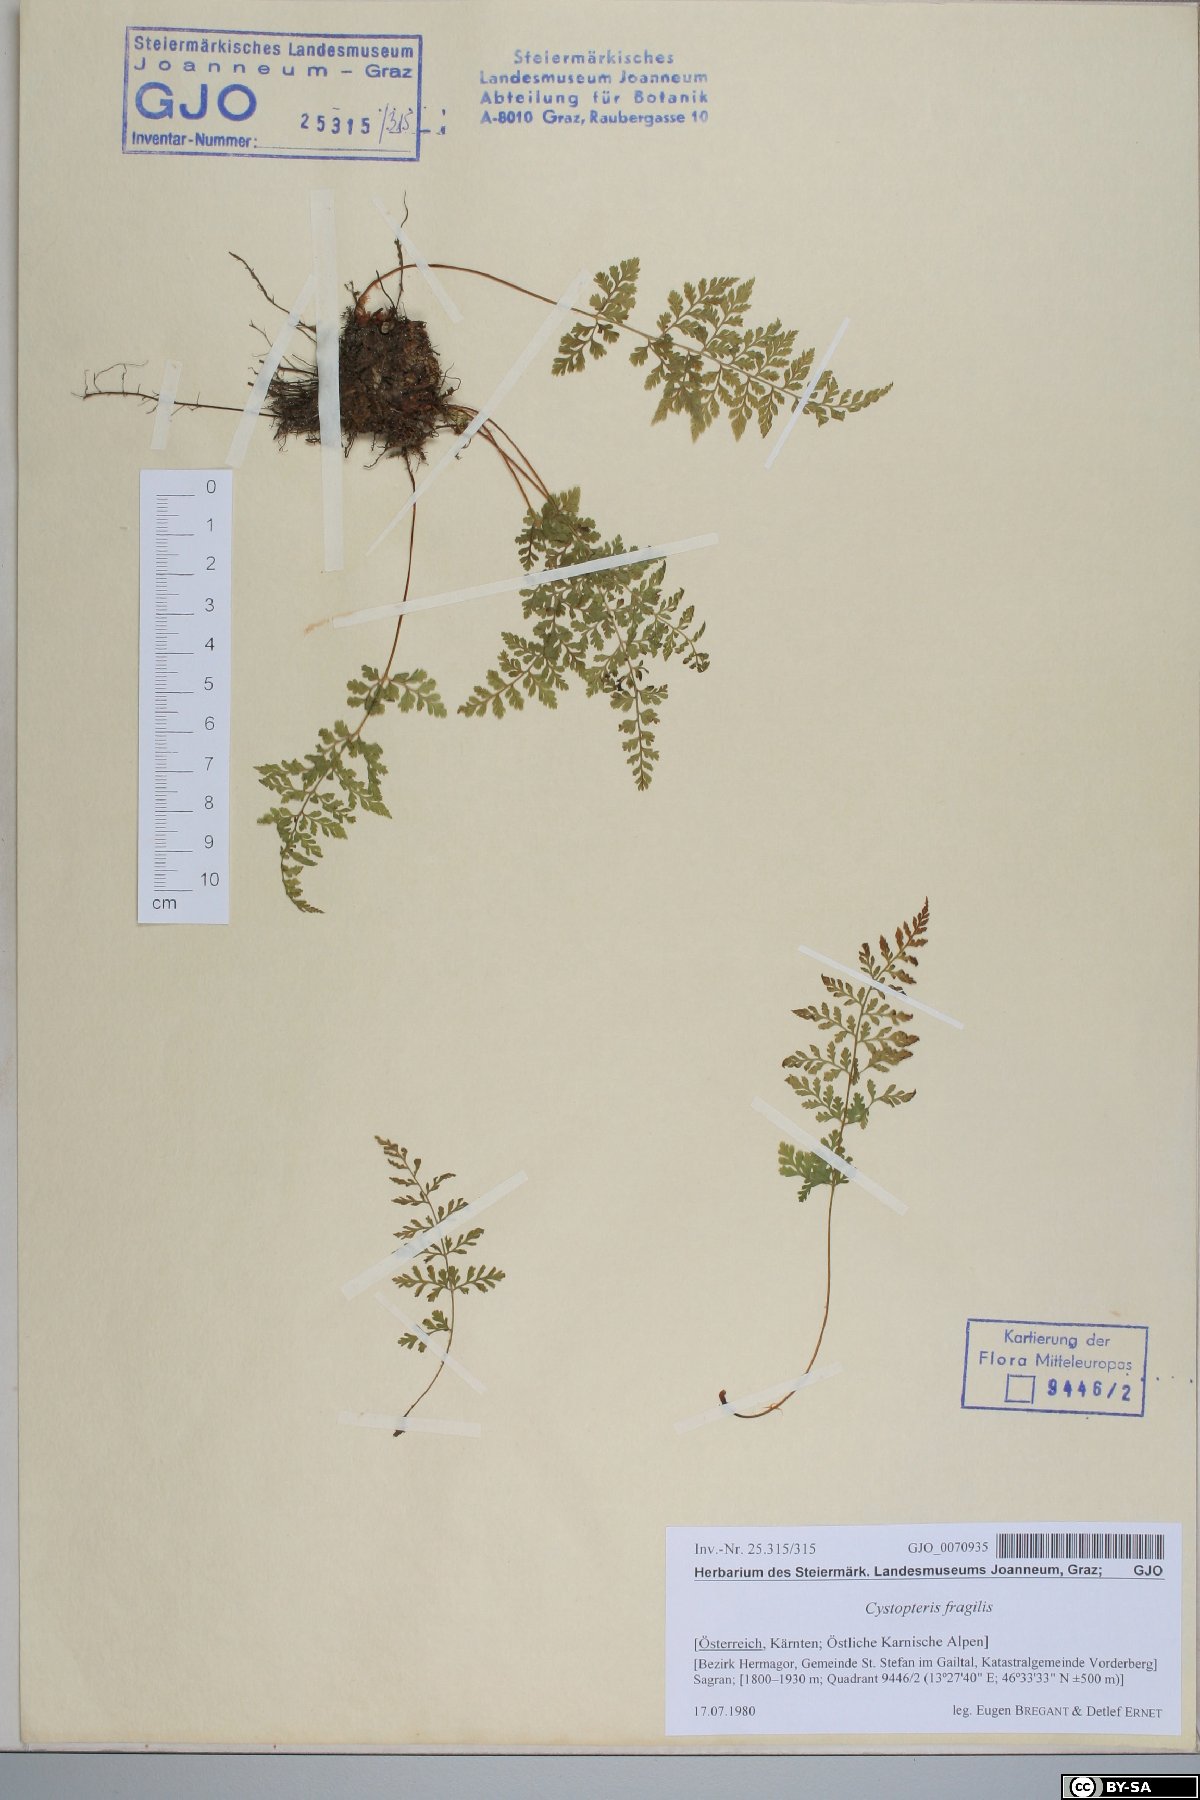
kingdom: Plantae
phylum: Tracheophyta
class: Polypodiopsida
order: Polypodiales
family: Cystopteridaceae
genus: Cystopteris
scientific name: Cystopteris fragilis
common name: Brittle bladder fern
